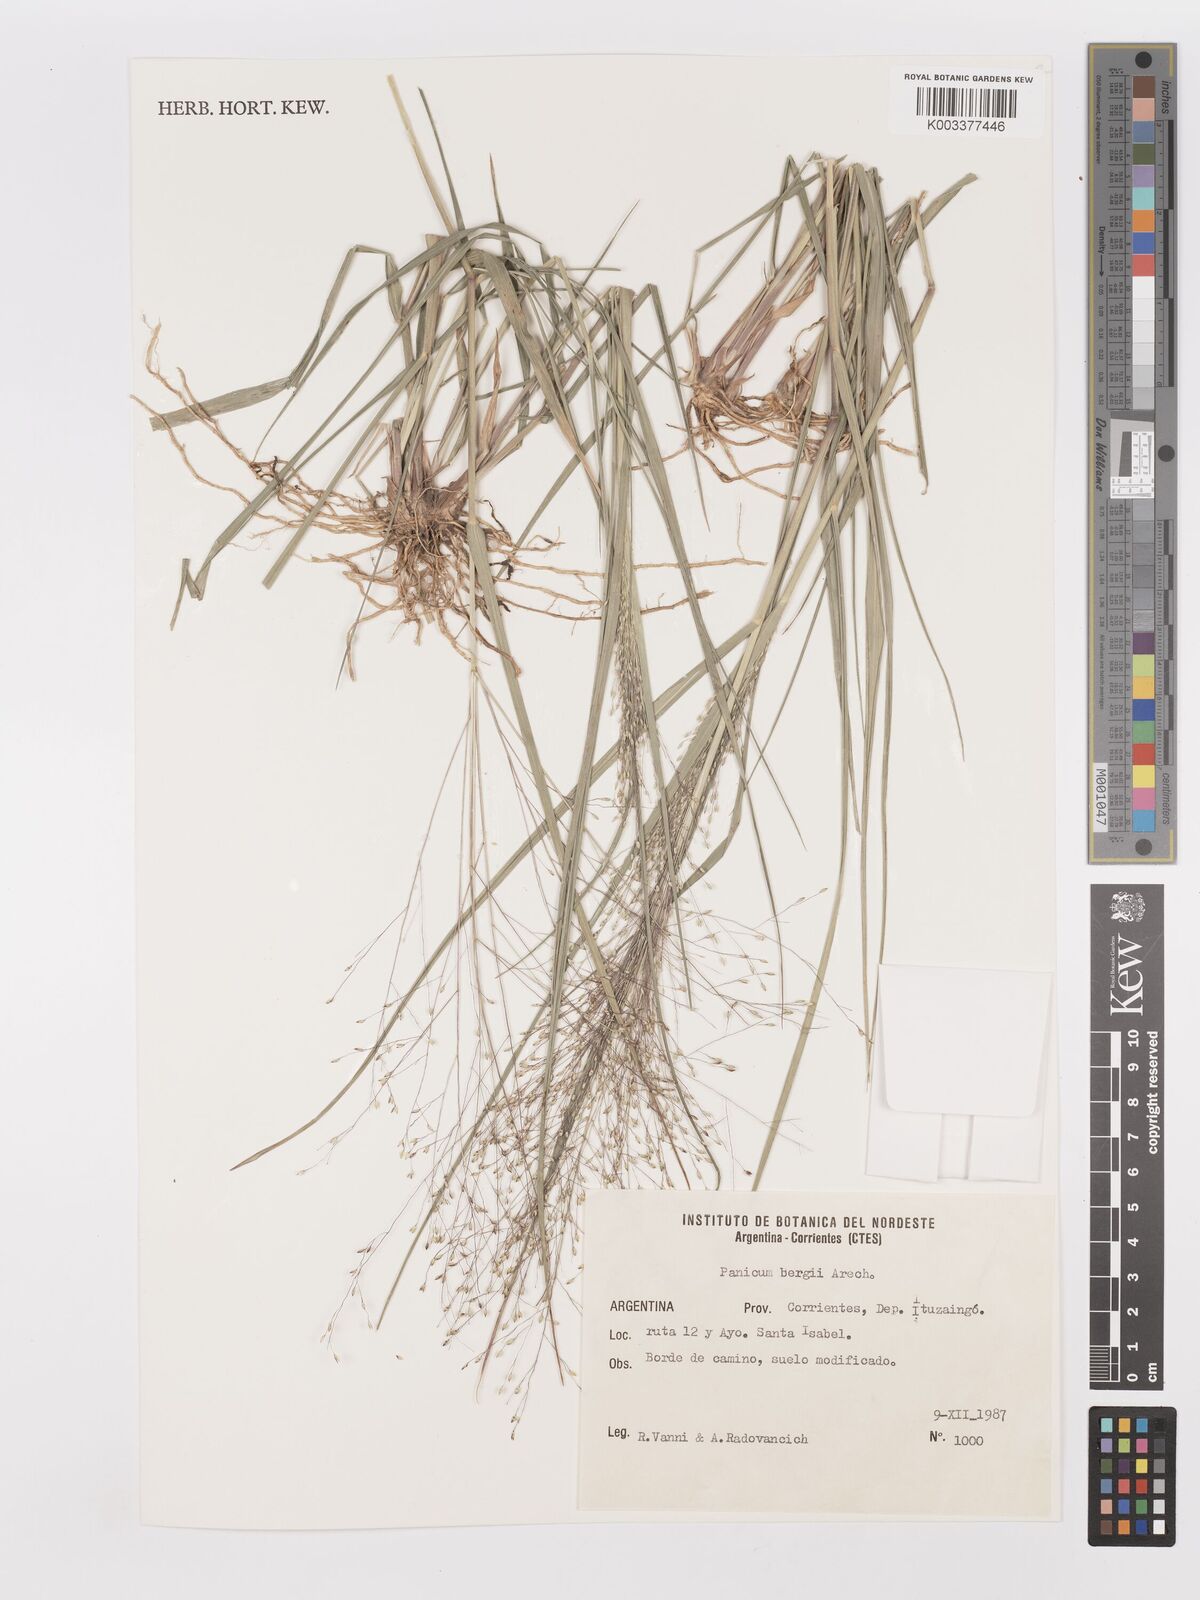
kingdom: Plantae
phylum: Tracheophyta
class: Liliopsida
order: Poales
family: Poaceae
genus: Panicum
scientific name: Panicum bergii
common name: Berg's panicgrass
